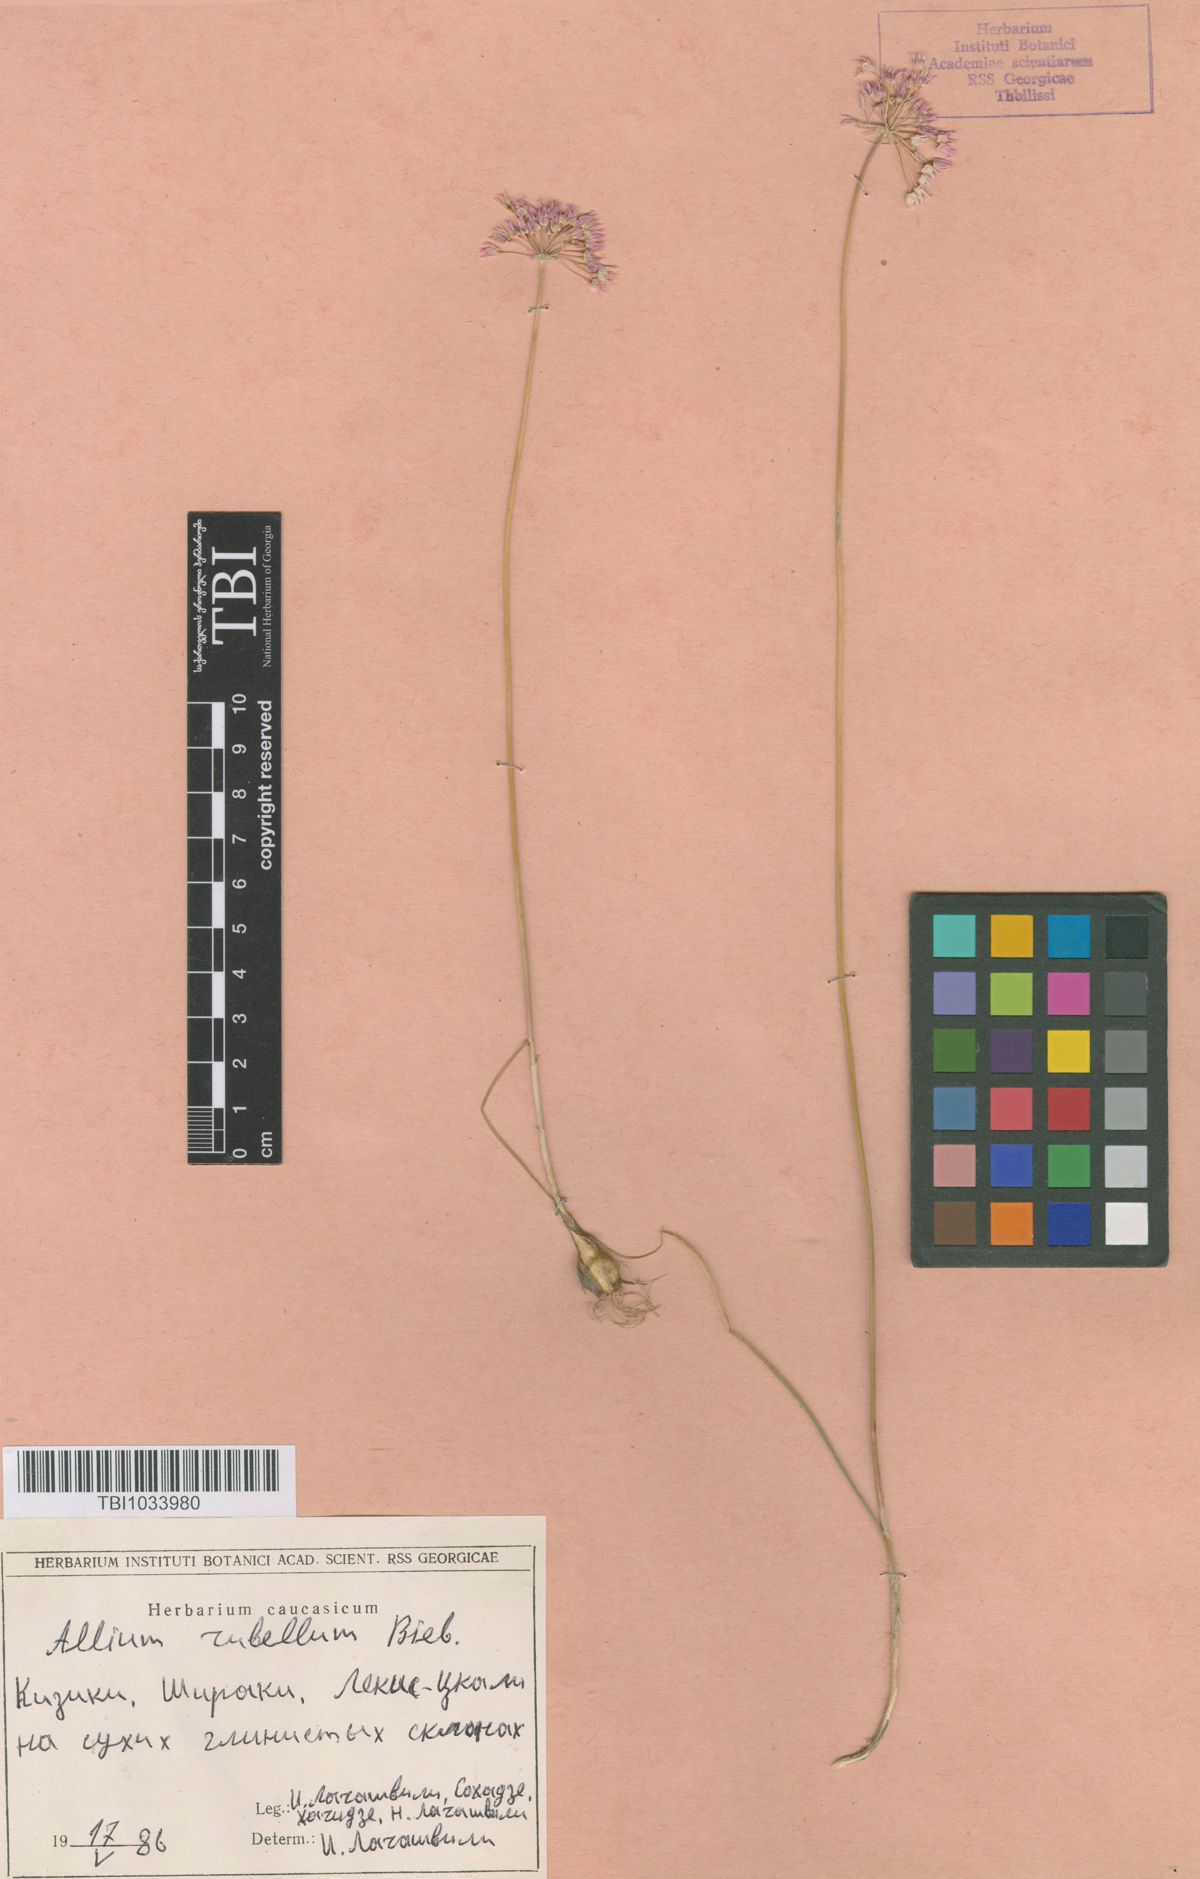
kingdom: Plantae
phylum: Tracheophyta
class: Liliopsida
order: Asparagales
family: Amaryllidaceae
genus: Allium
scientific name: Allium rubellum
